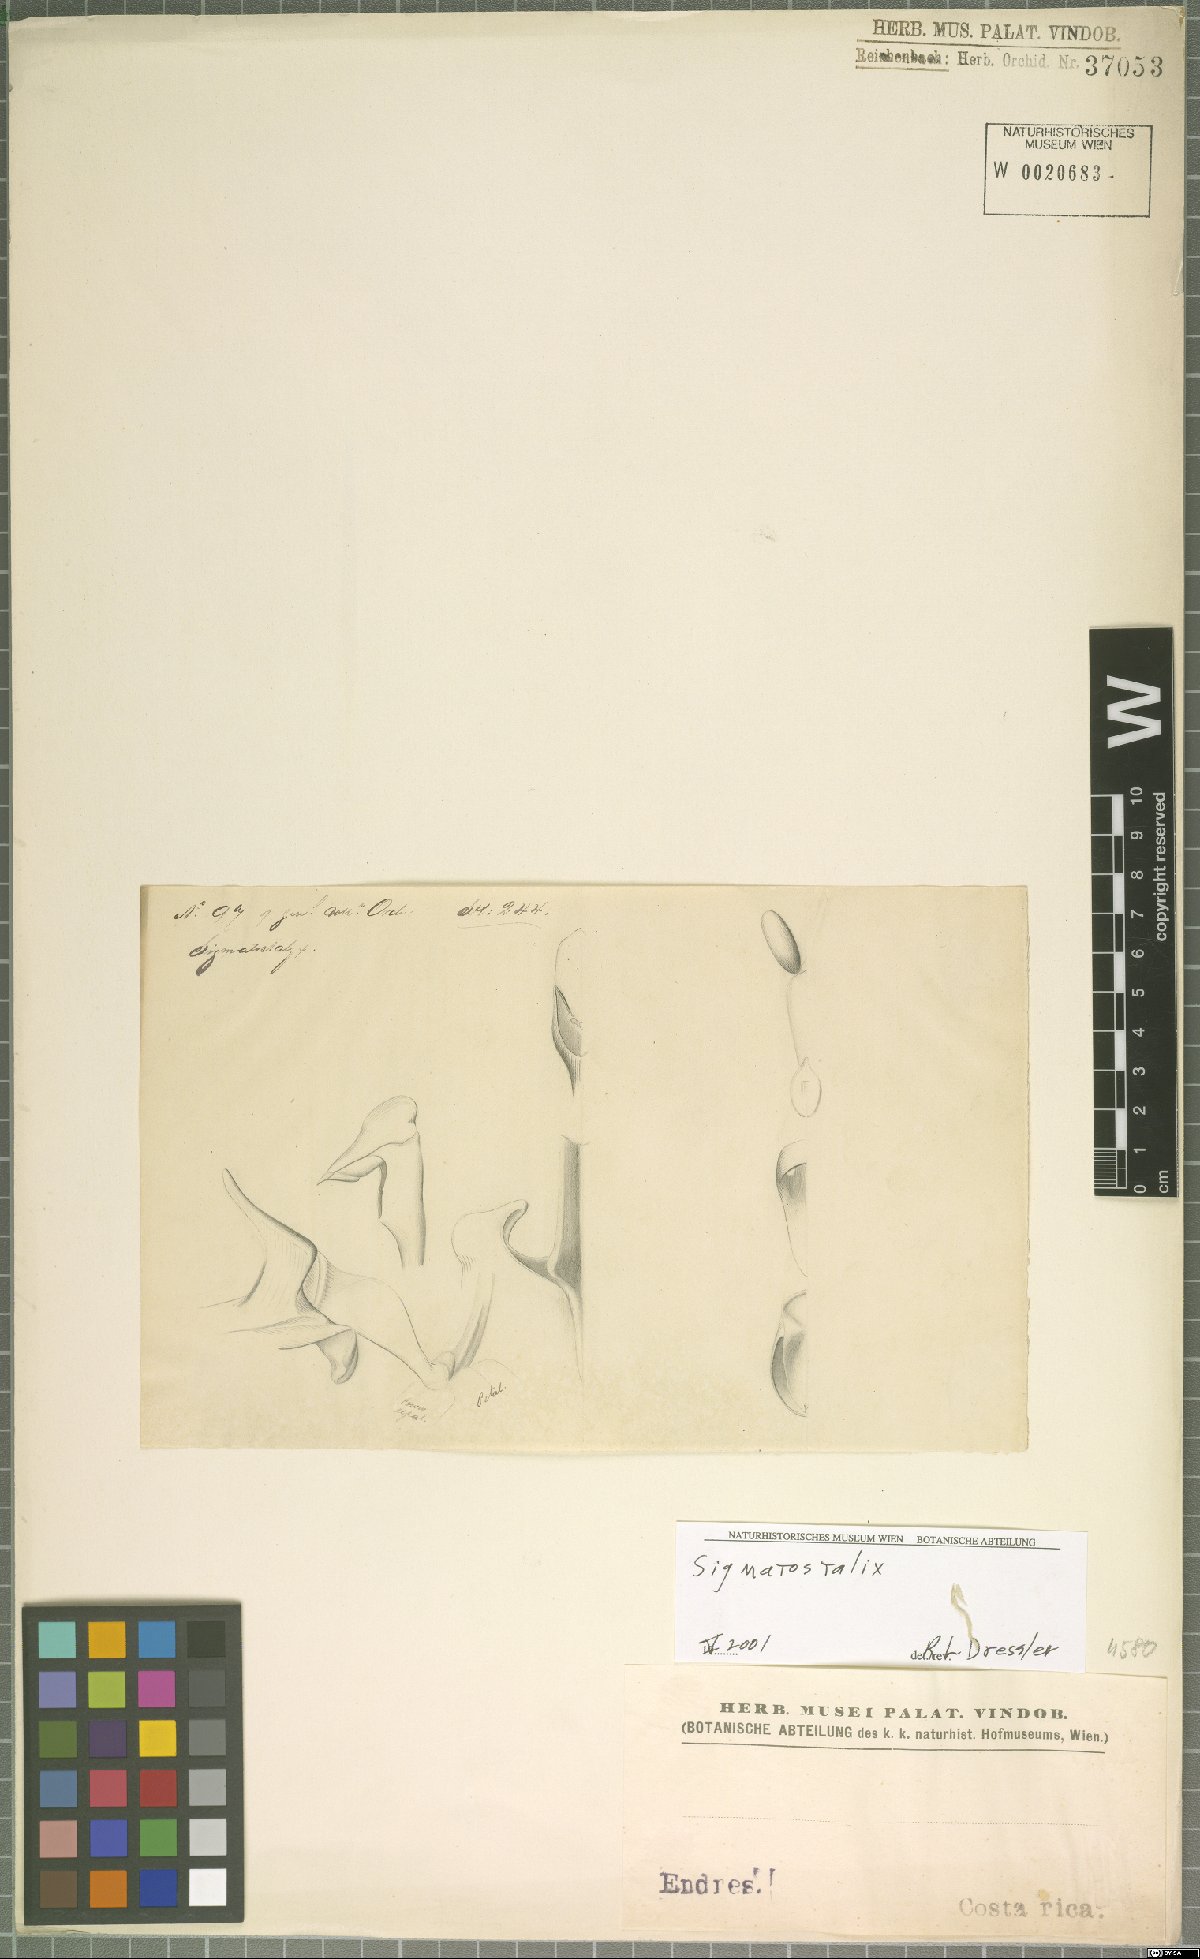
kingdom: Plantae
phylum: Tracheophyta
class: Liliopsida
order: Asparagales
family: Orchidaceae
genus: Oncidium
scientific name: Oncidium
